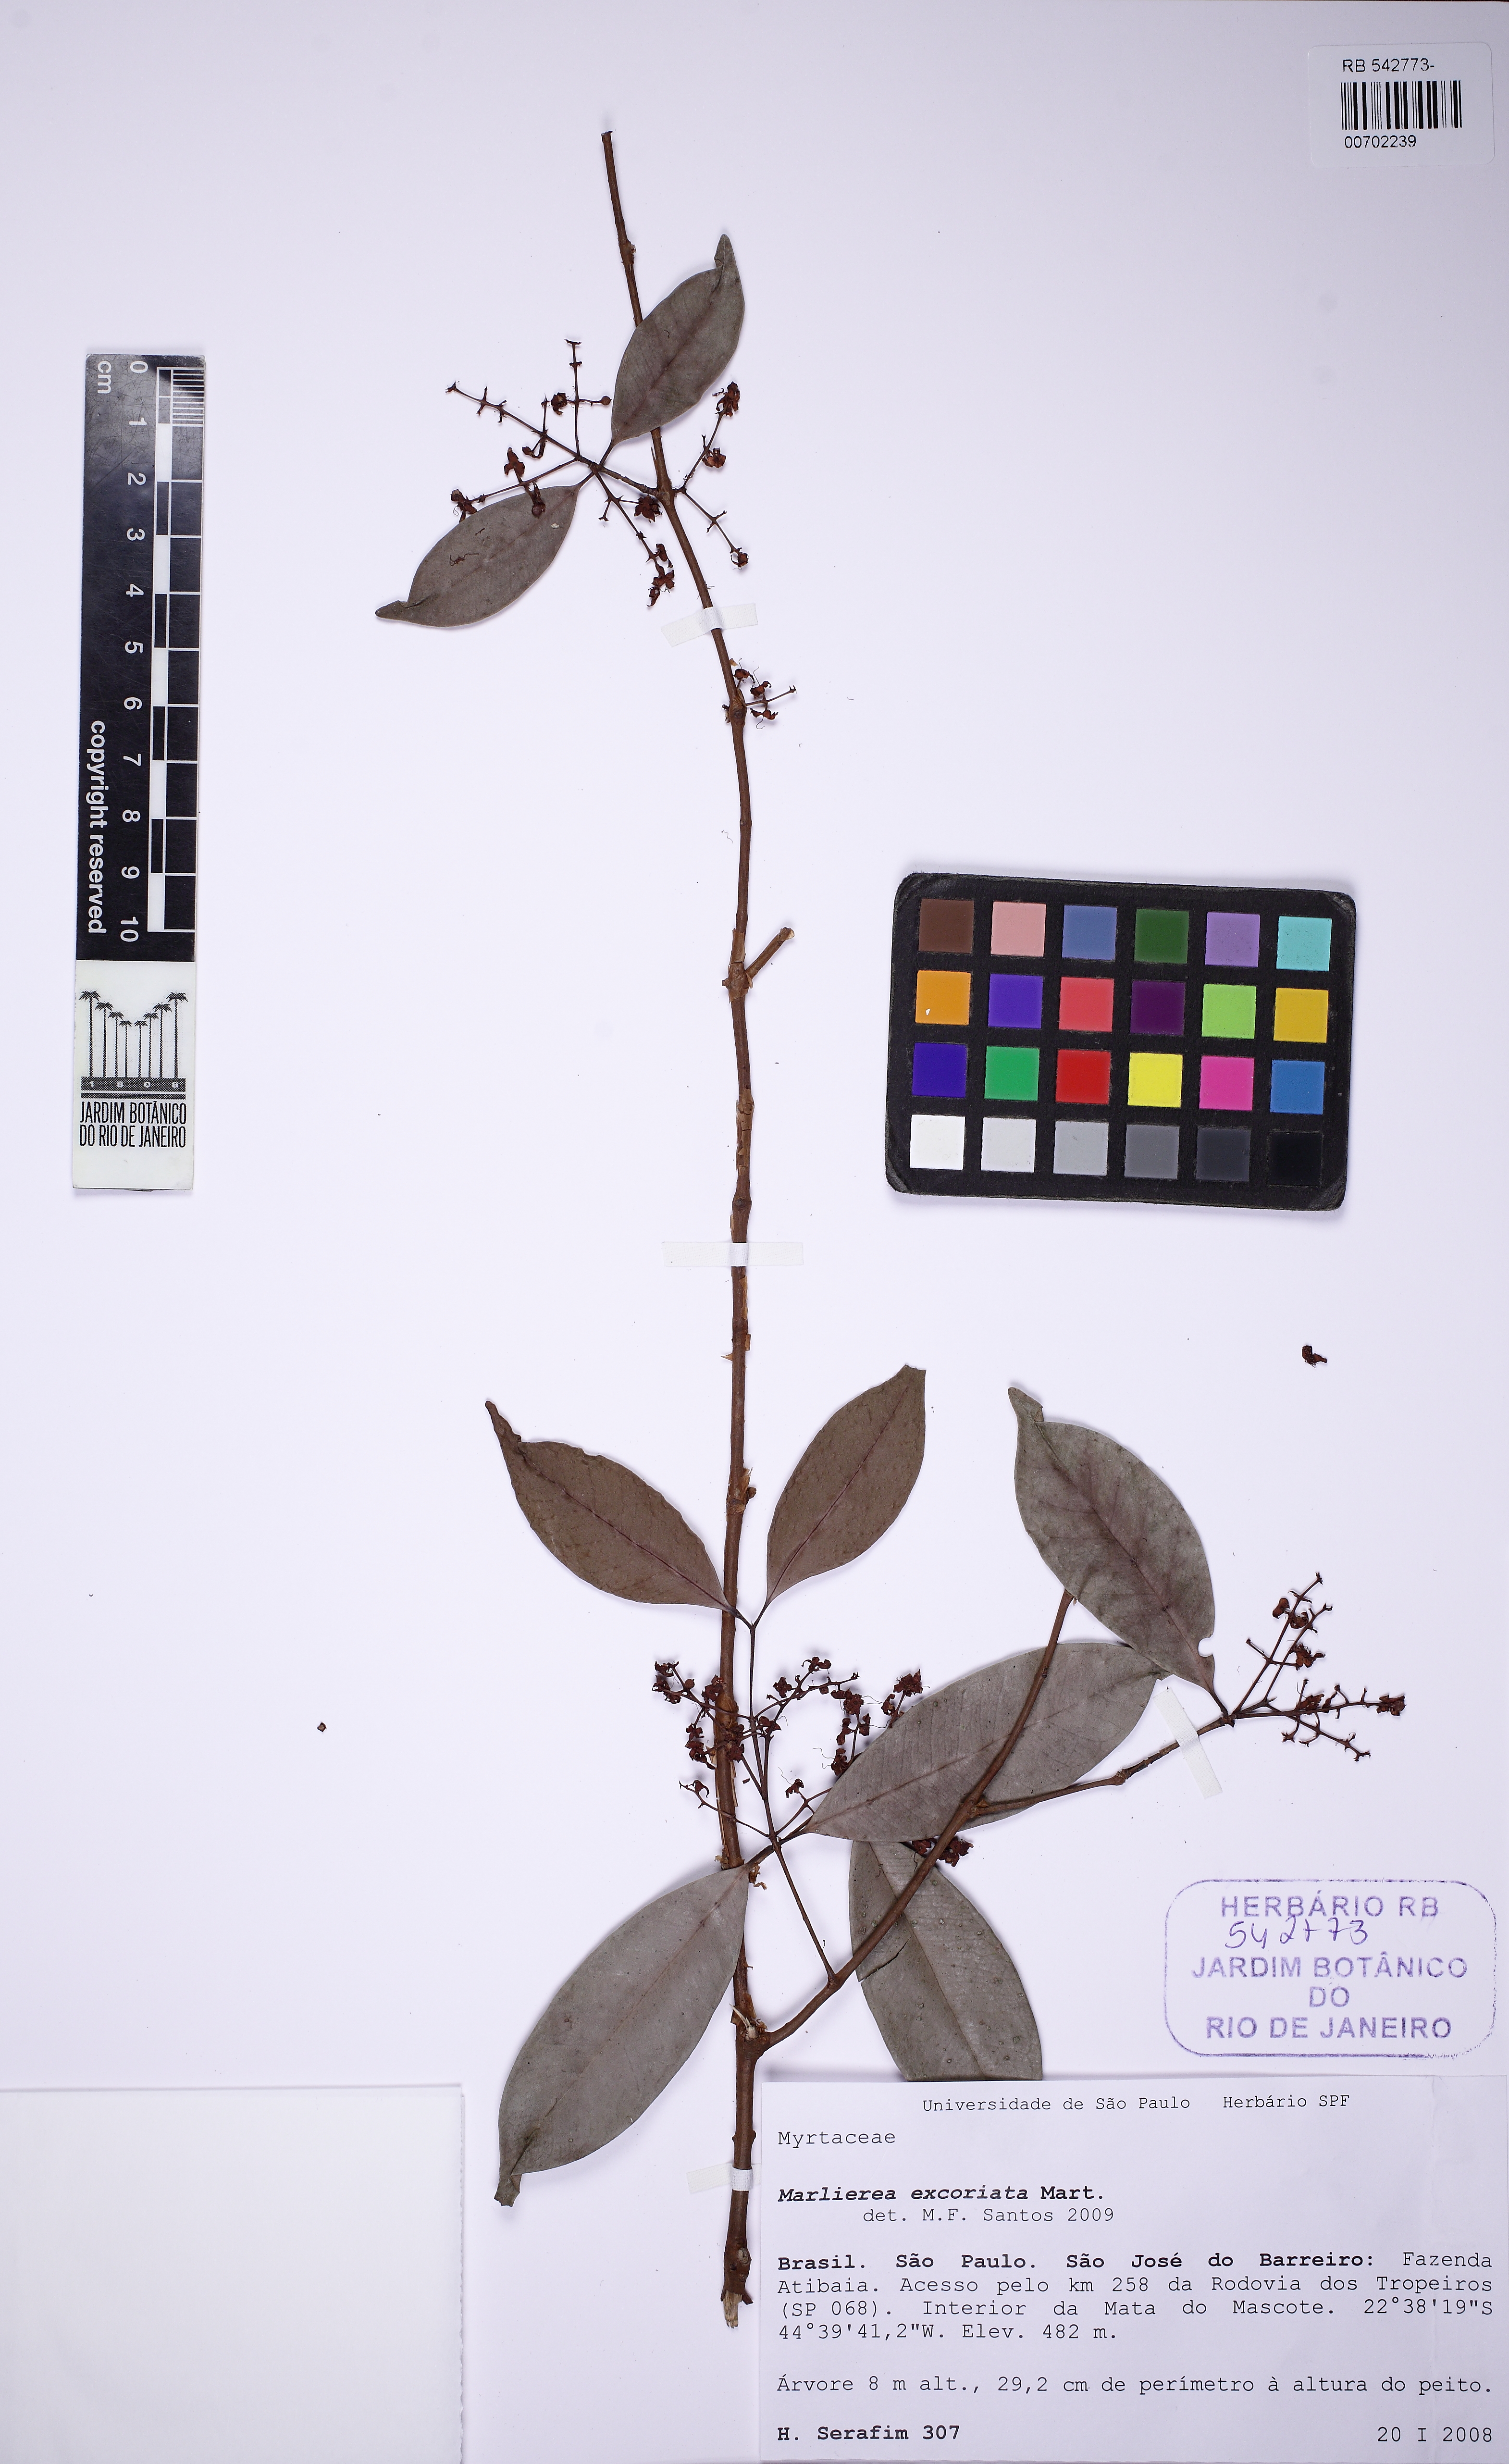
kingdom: Plantae
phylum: Tracheophyta
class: Magnoliopsida
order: Myrtales
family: Myrtaceae
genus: Myrcia
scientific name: Myrcia excoriata
